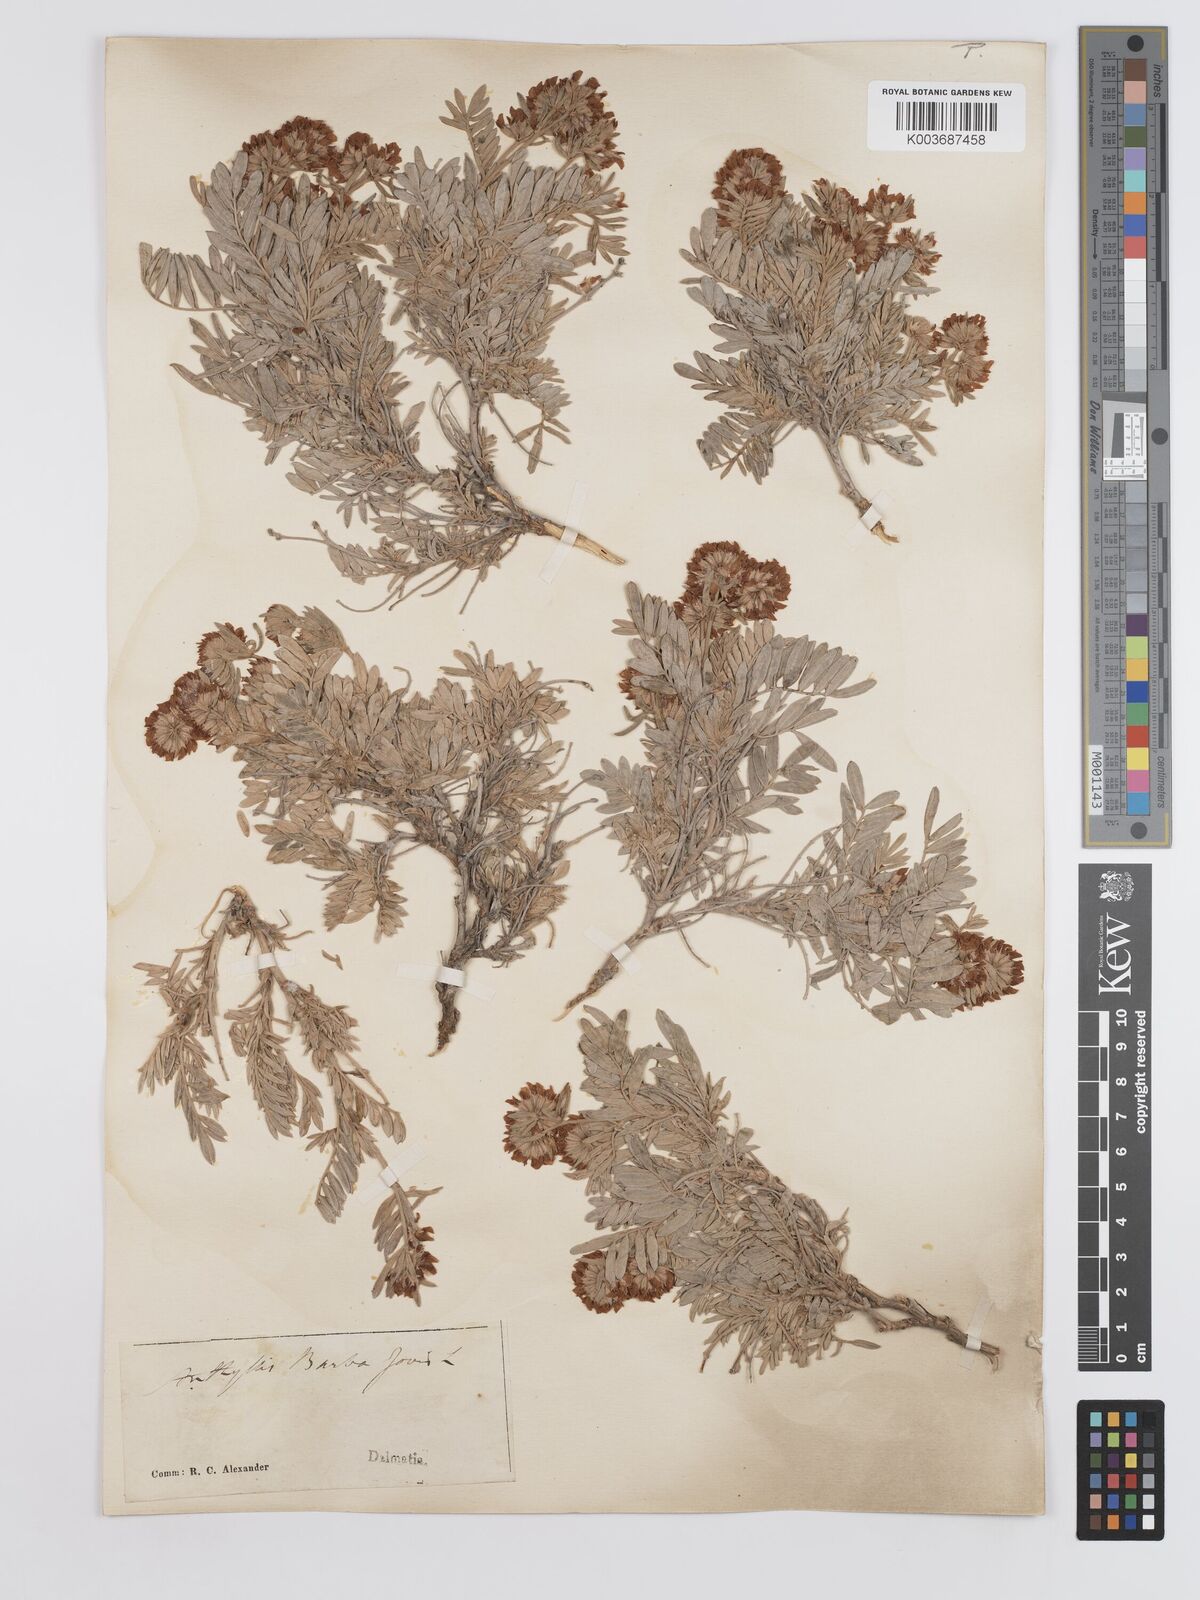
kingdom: Plantae
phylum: Tracheophyta
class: Magnoliopsida
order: Fabales
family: Fabaceae
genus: Anthyllis
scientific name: Anthyllis barba-jovis
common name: Jupiter's-beard
